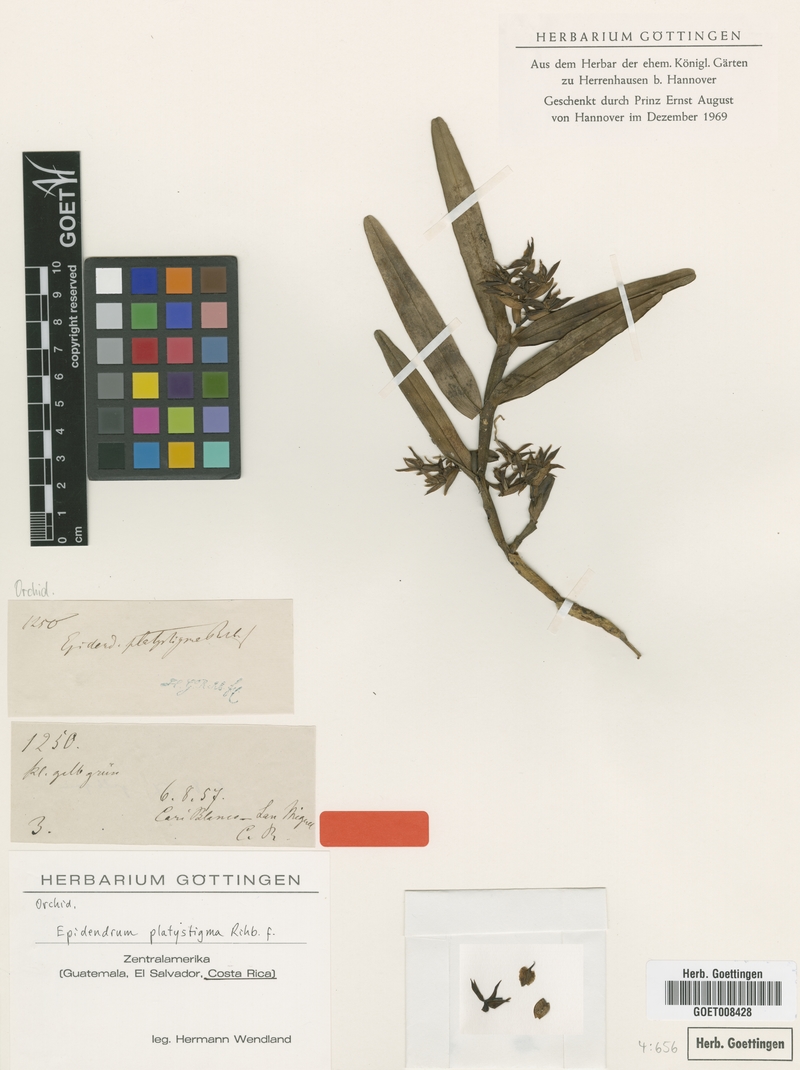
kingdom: Plantae
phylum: Tracheophyta
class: Liliopsida
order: Asparagales
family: Orchidaceae
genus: Epidendrum
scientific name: Epidendrum platystigma
